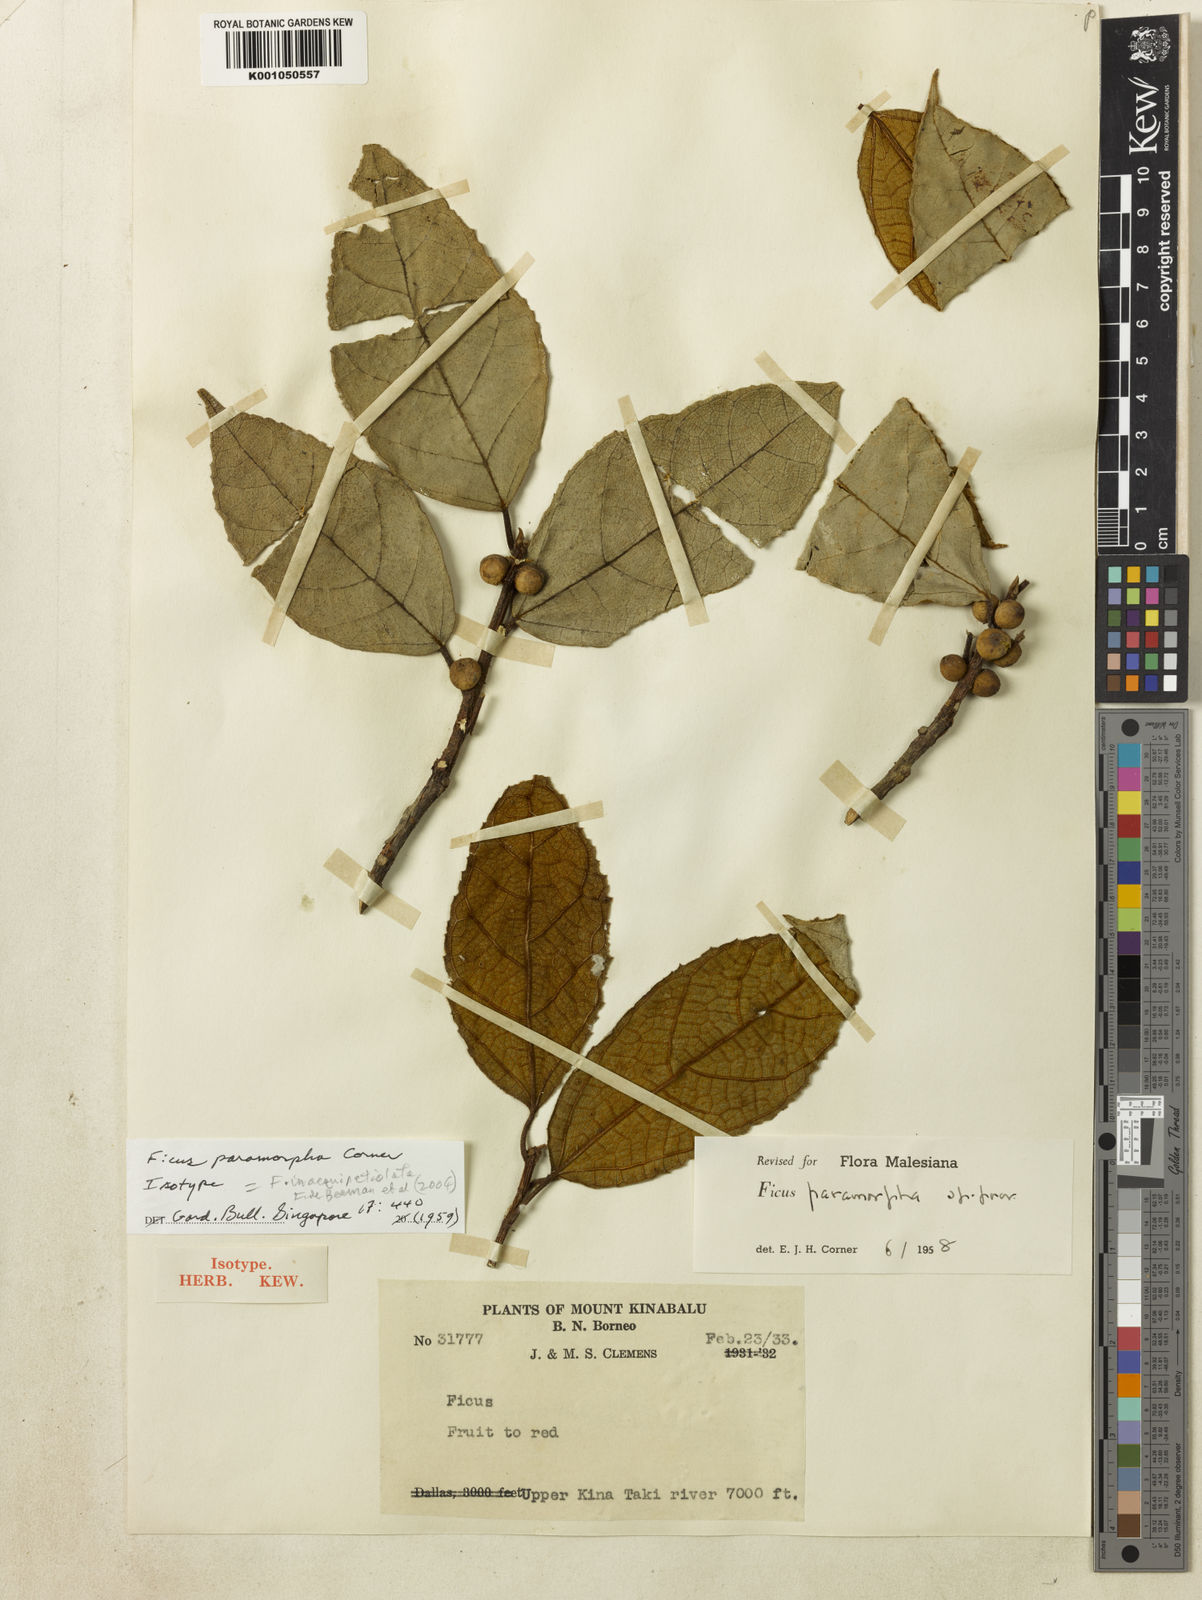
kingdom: Plantae
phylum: Tracheophyta
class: Magnoliopsida
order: Rosales
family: Moraceae
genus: Ficus
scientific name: Ficus inaequipetiolata
